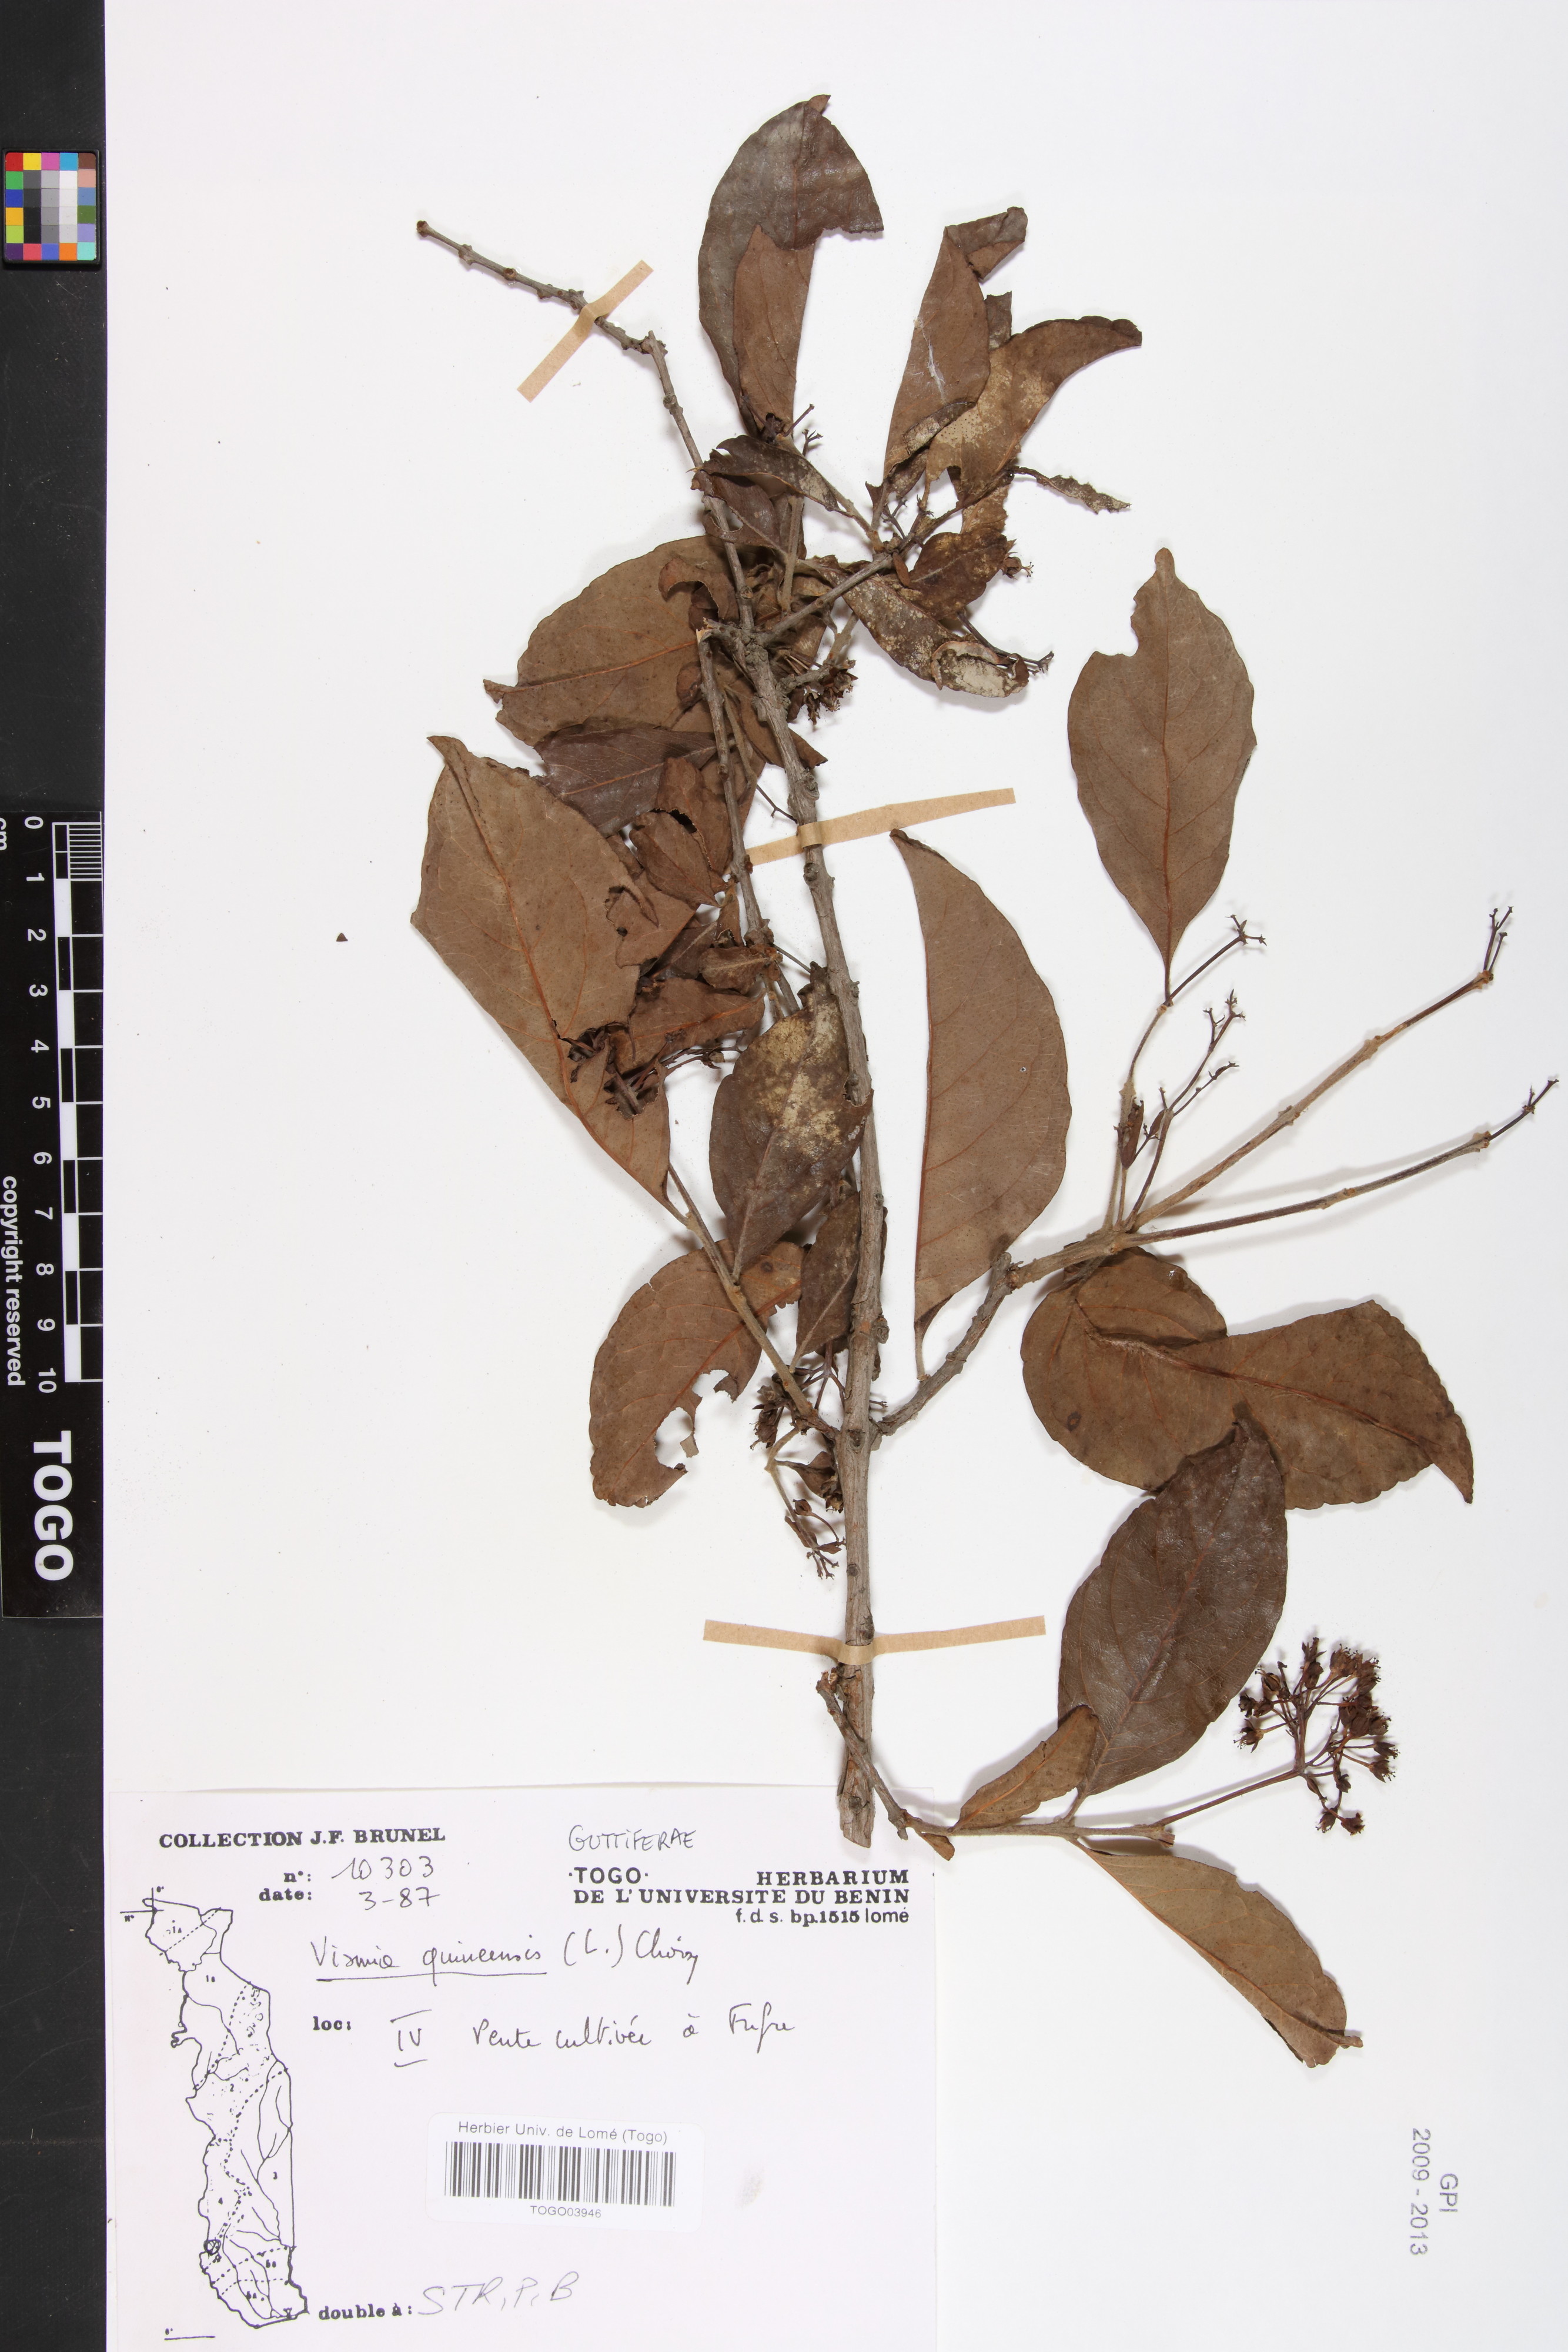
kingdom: Plantae
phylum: Tracheophyta
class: Magnoliopsida
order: Malpighiales
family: Hypericaceae
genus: Psorospermum
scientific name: Psorospermum guineense
